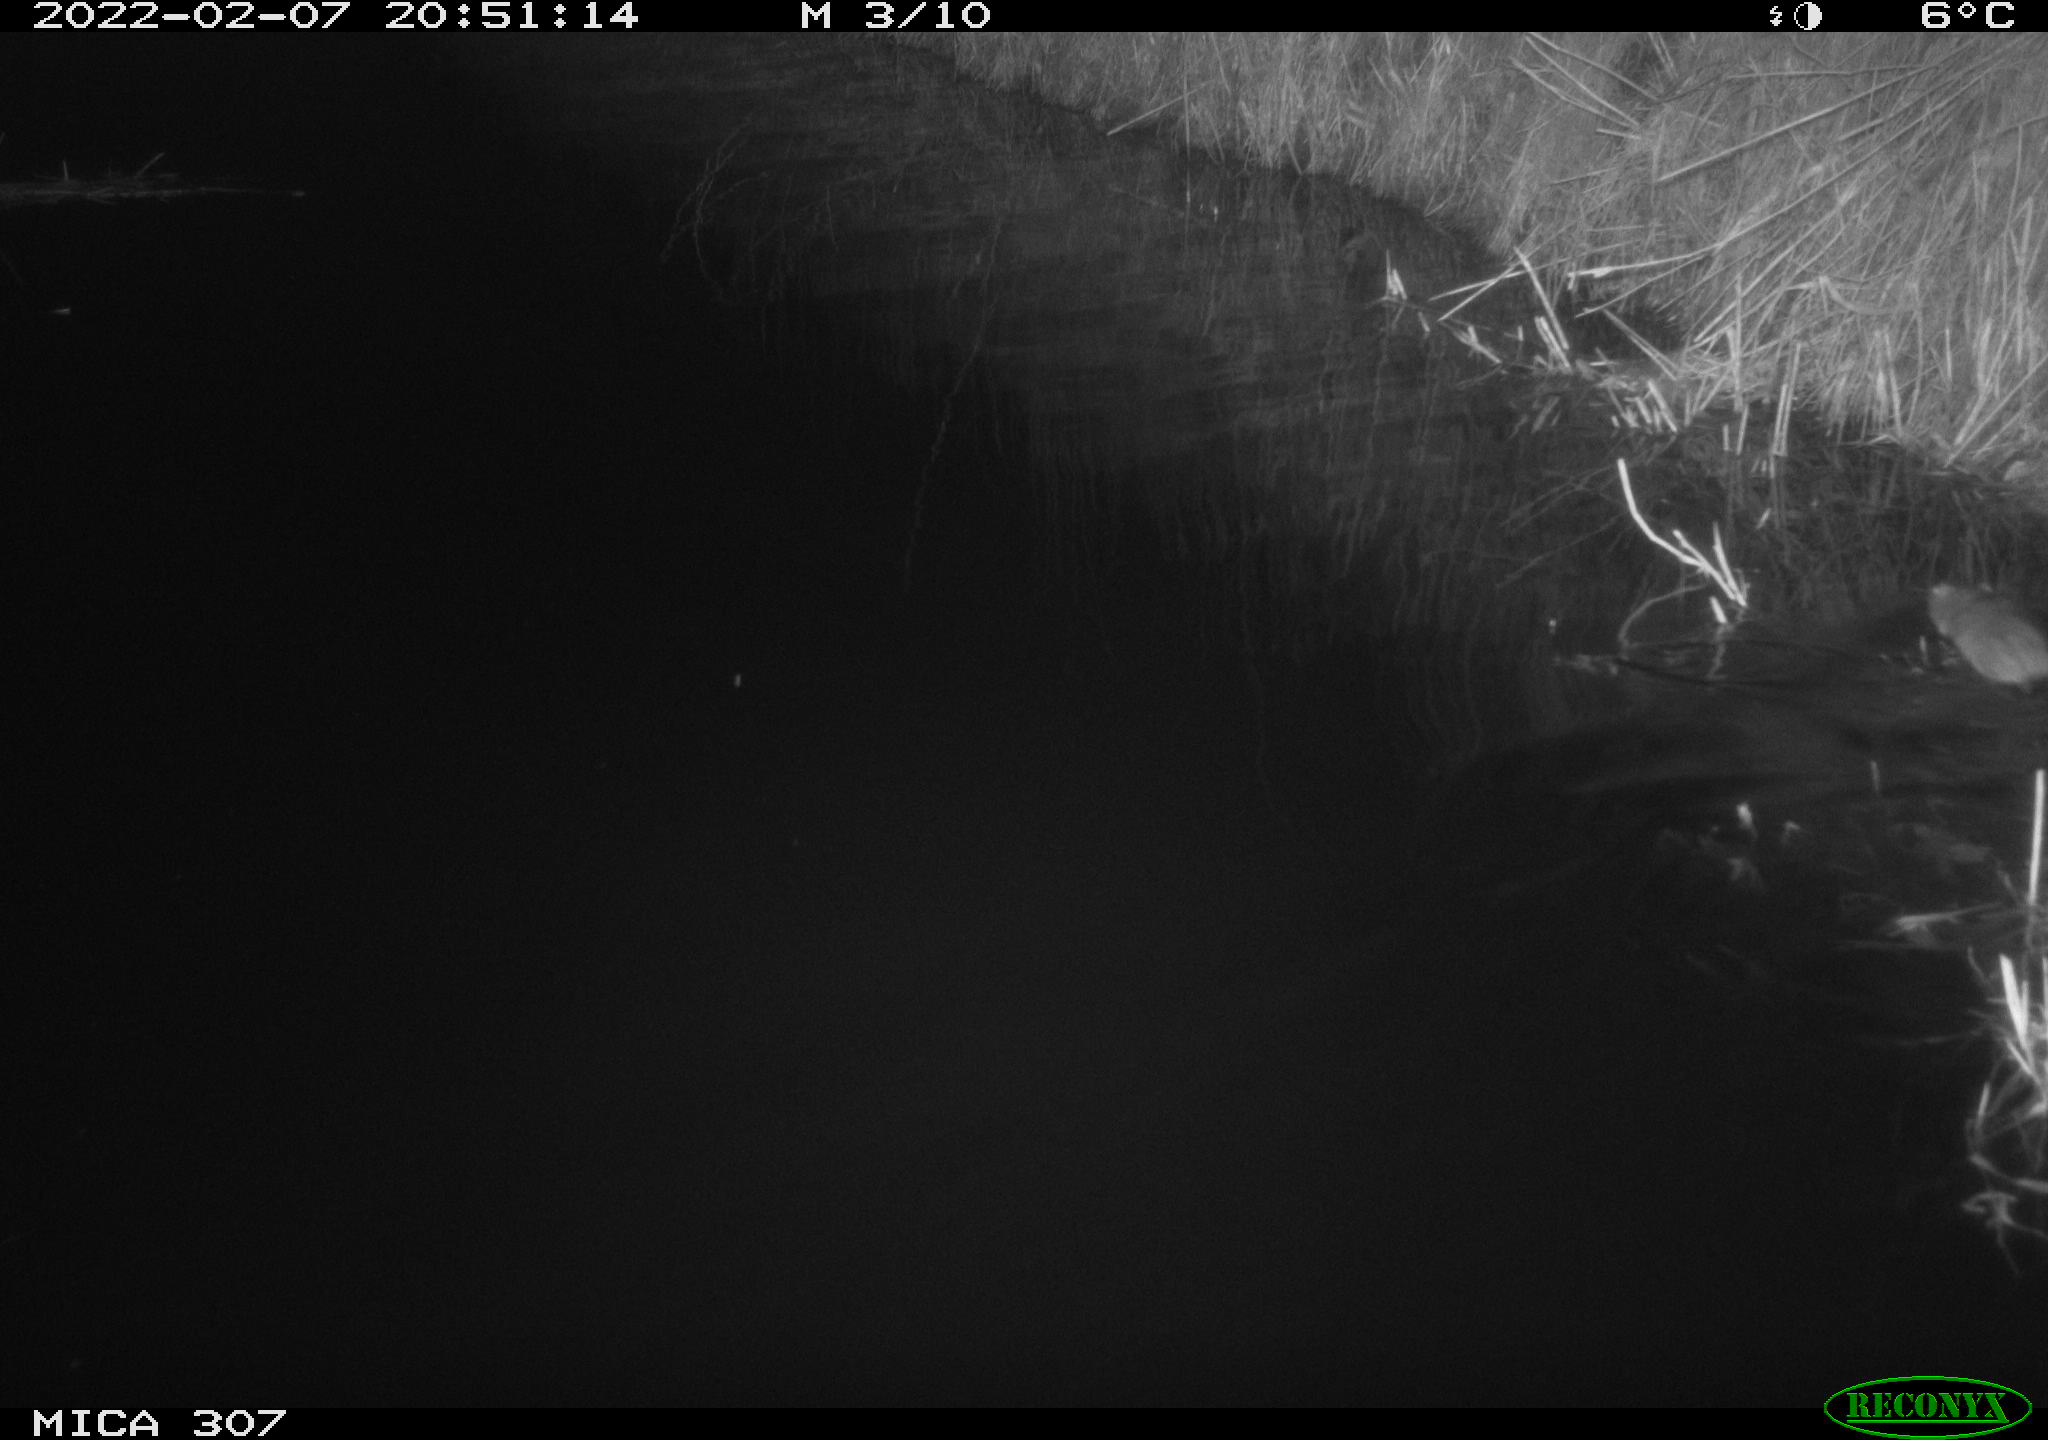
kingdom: Animalia
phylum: Chordata
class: Mammalia
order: Rodentia
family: Muridae
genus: Rattus
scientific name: Rattus norvegicus
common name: Brown rat
